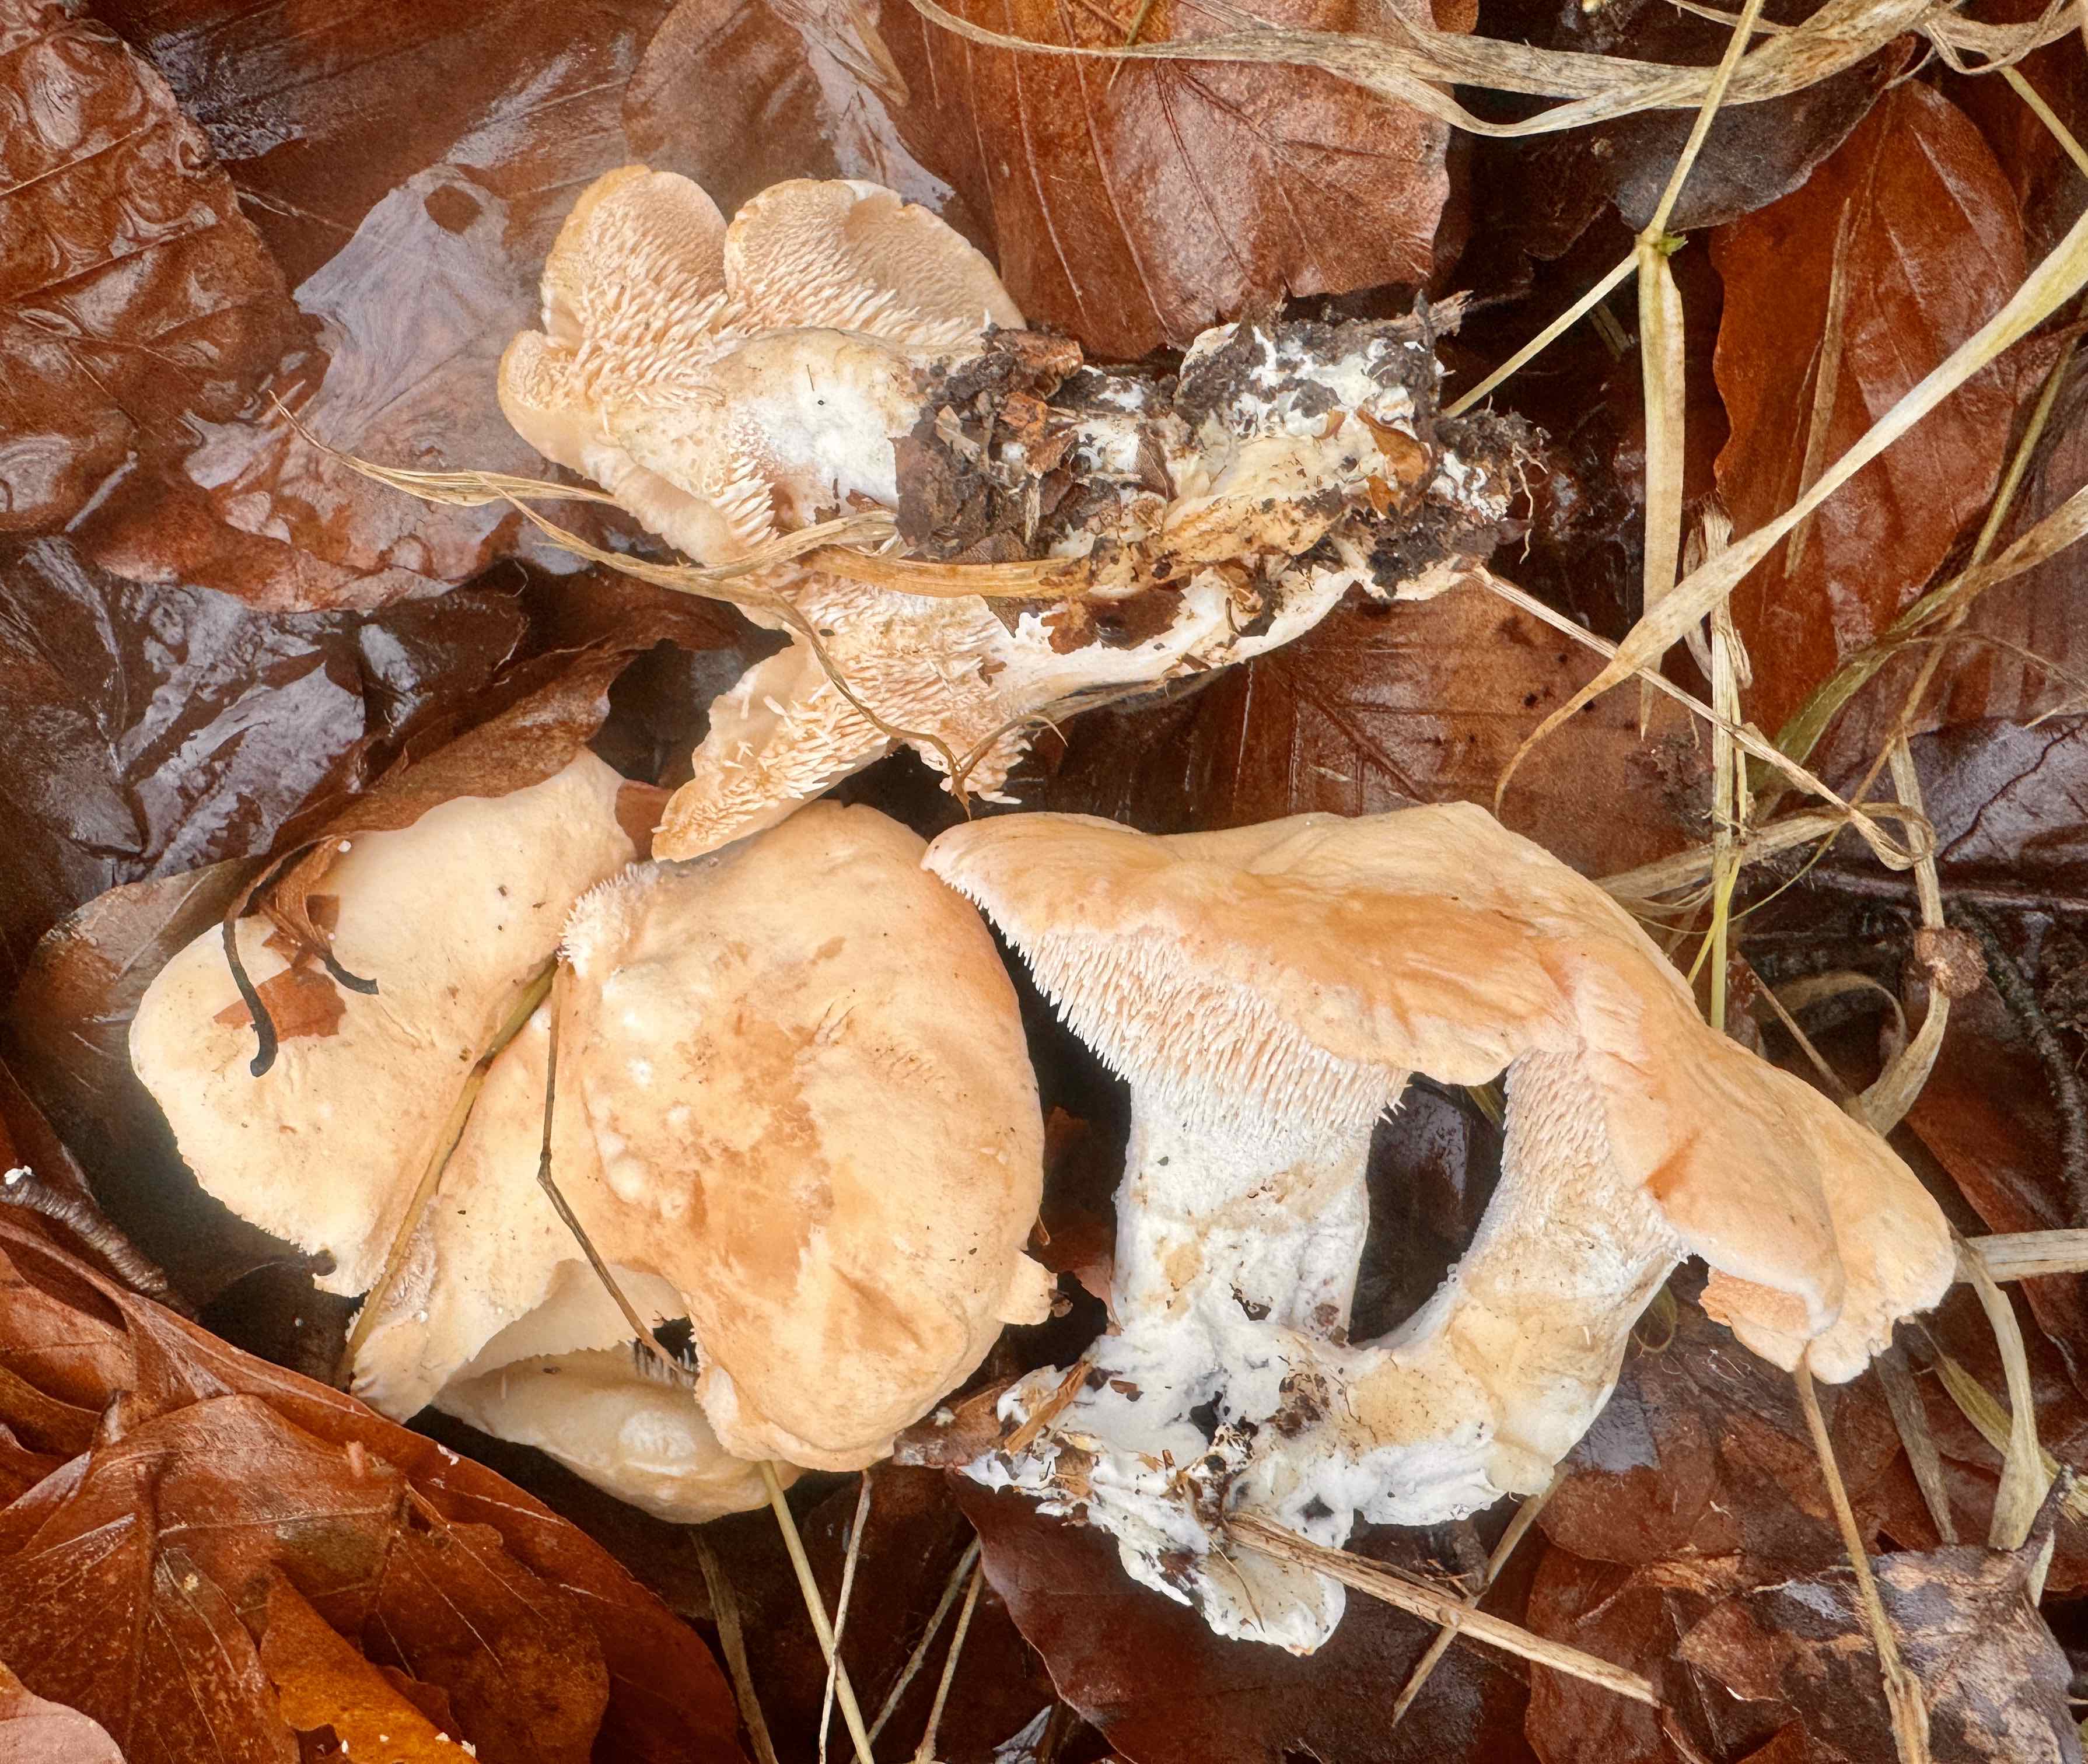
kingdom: Fungi
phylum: Basidiomycota
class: Agaricomycetes
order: Cantharellales
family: Hydnaceae
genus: Hydnum
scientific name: Hydnum repandum
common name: almindelig pigsvamp
